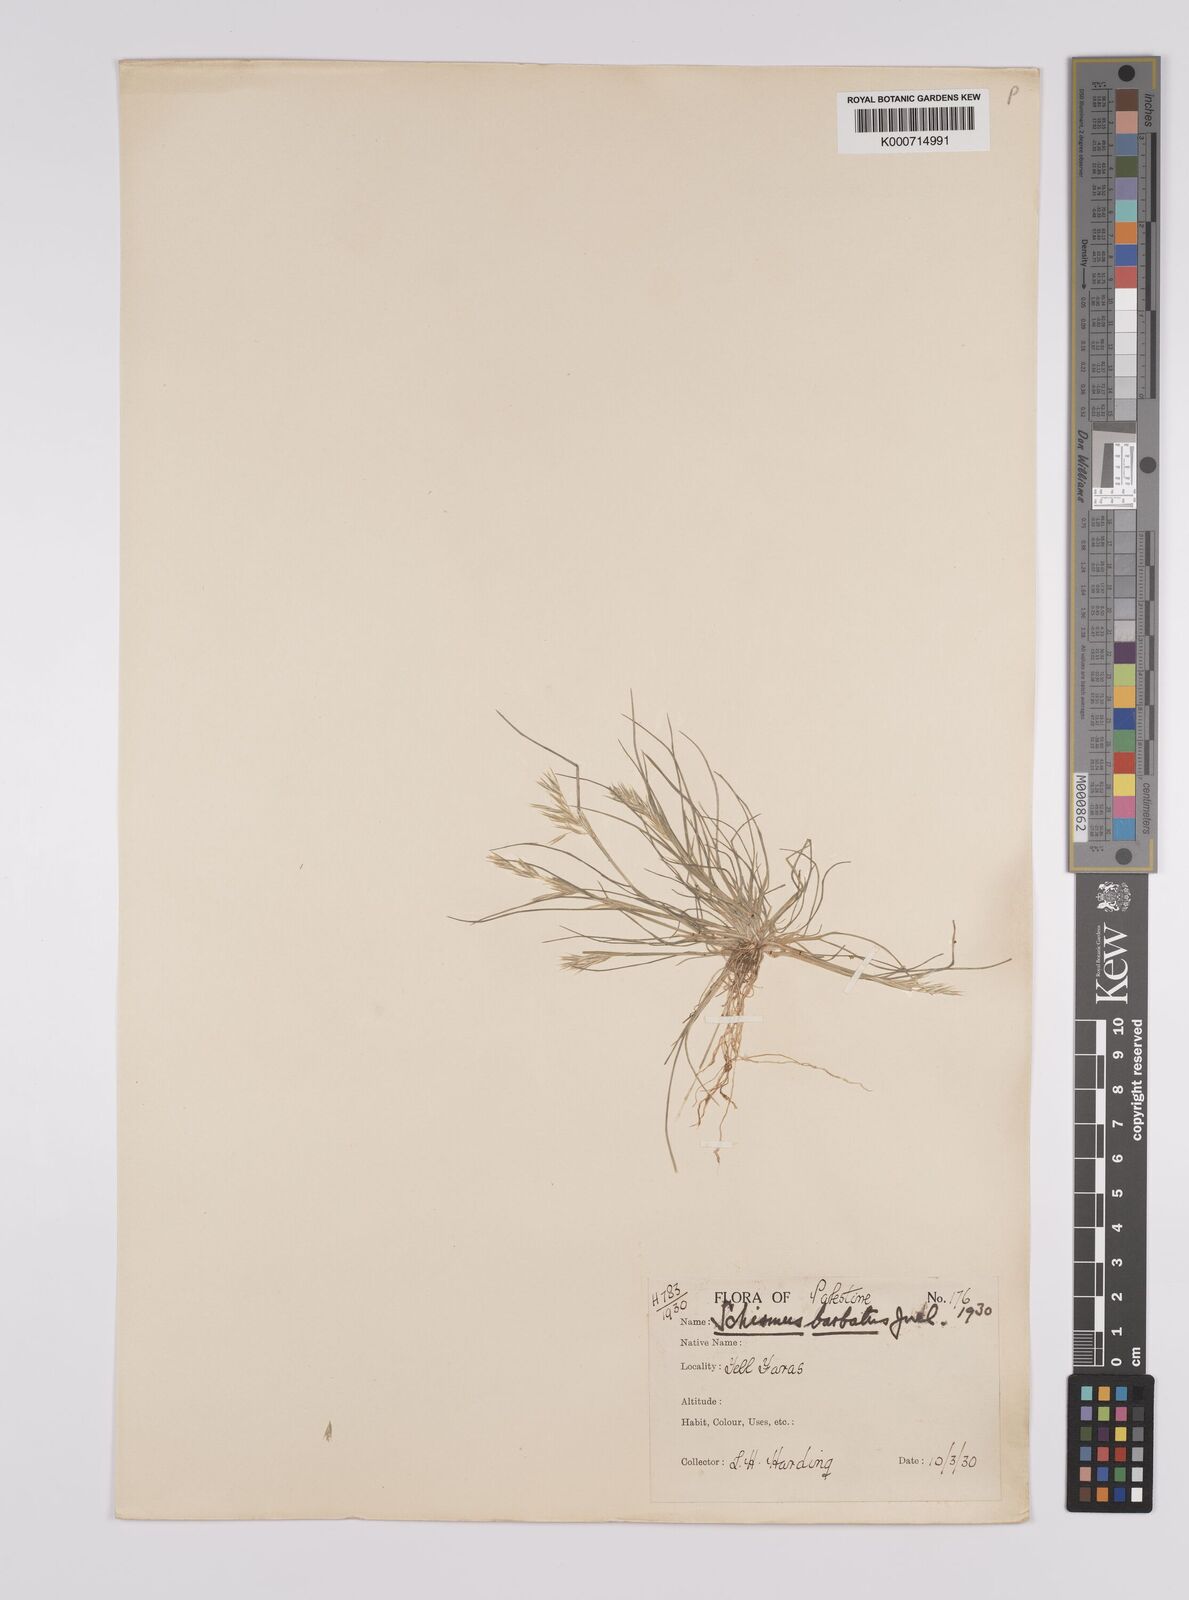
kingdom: Plantae
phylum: Tracheophyta
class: Liliopsida
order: Poales
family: Poaceae
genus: Schismus
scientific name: Schismus arabicus
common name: Arabian schismus
